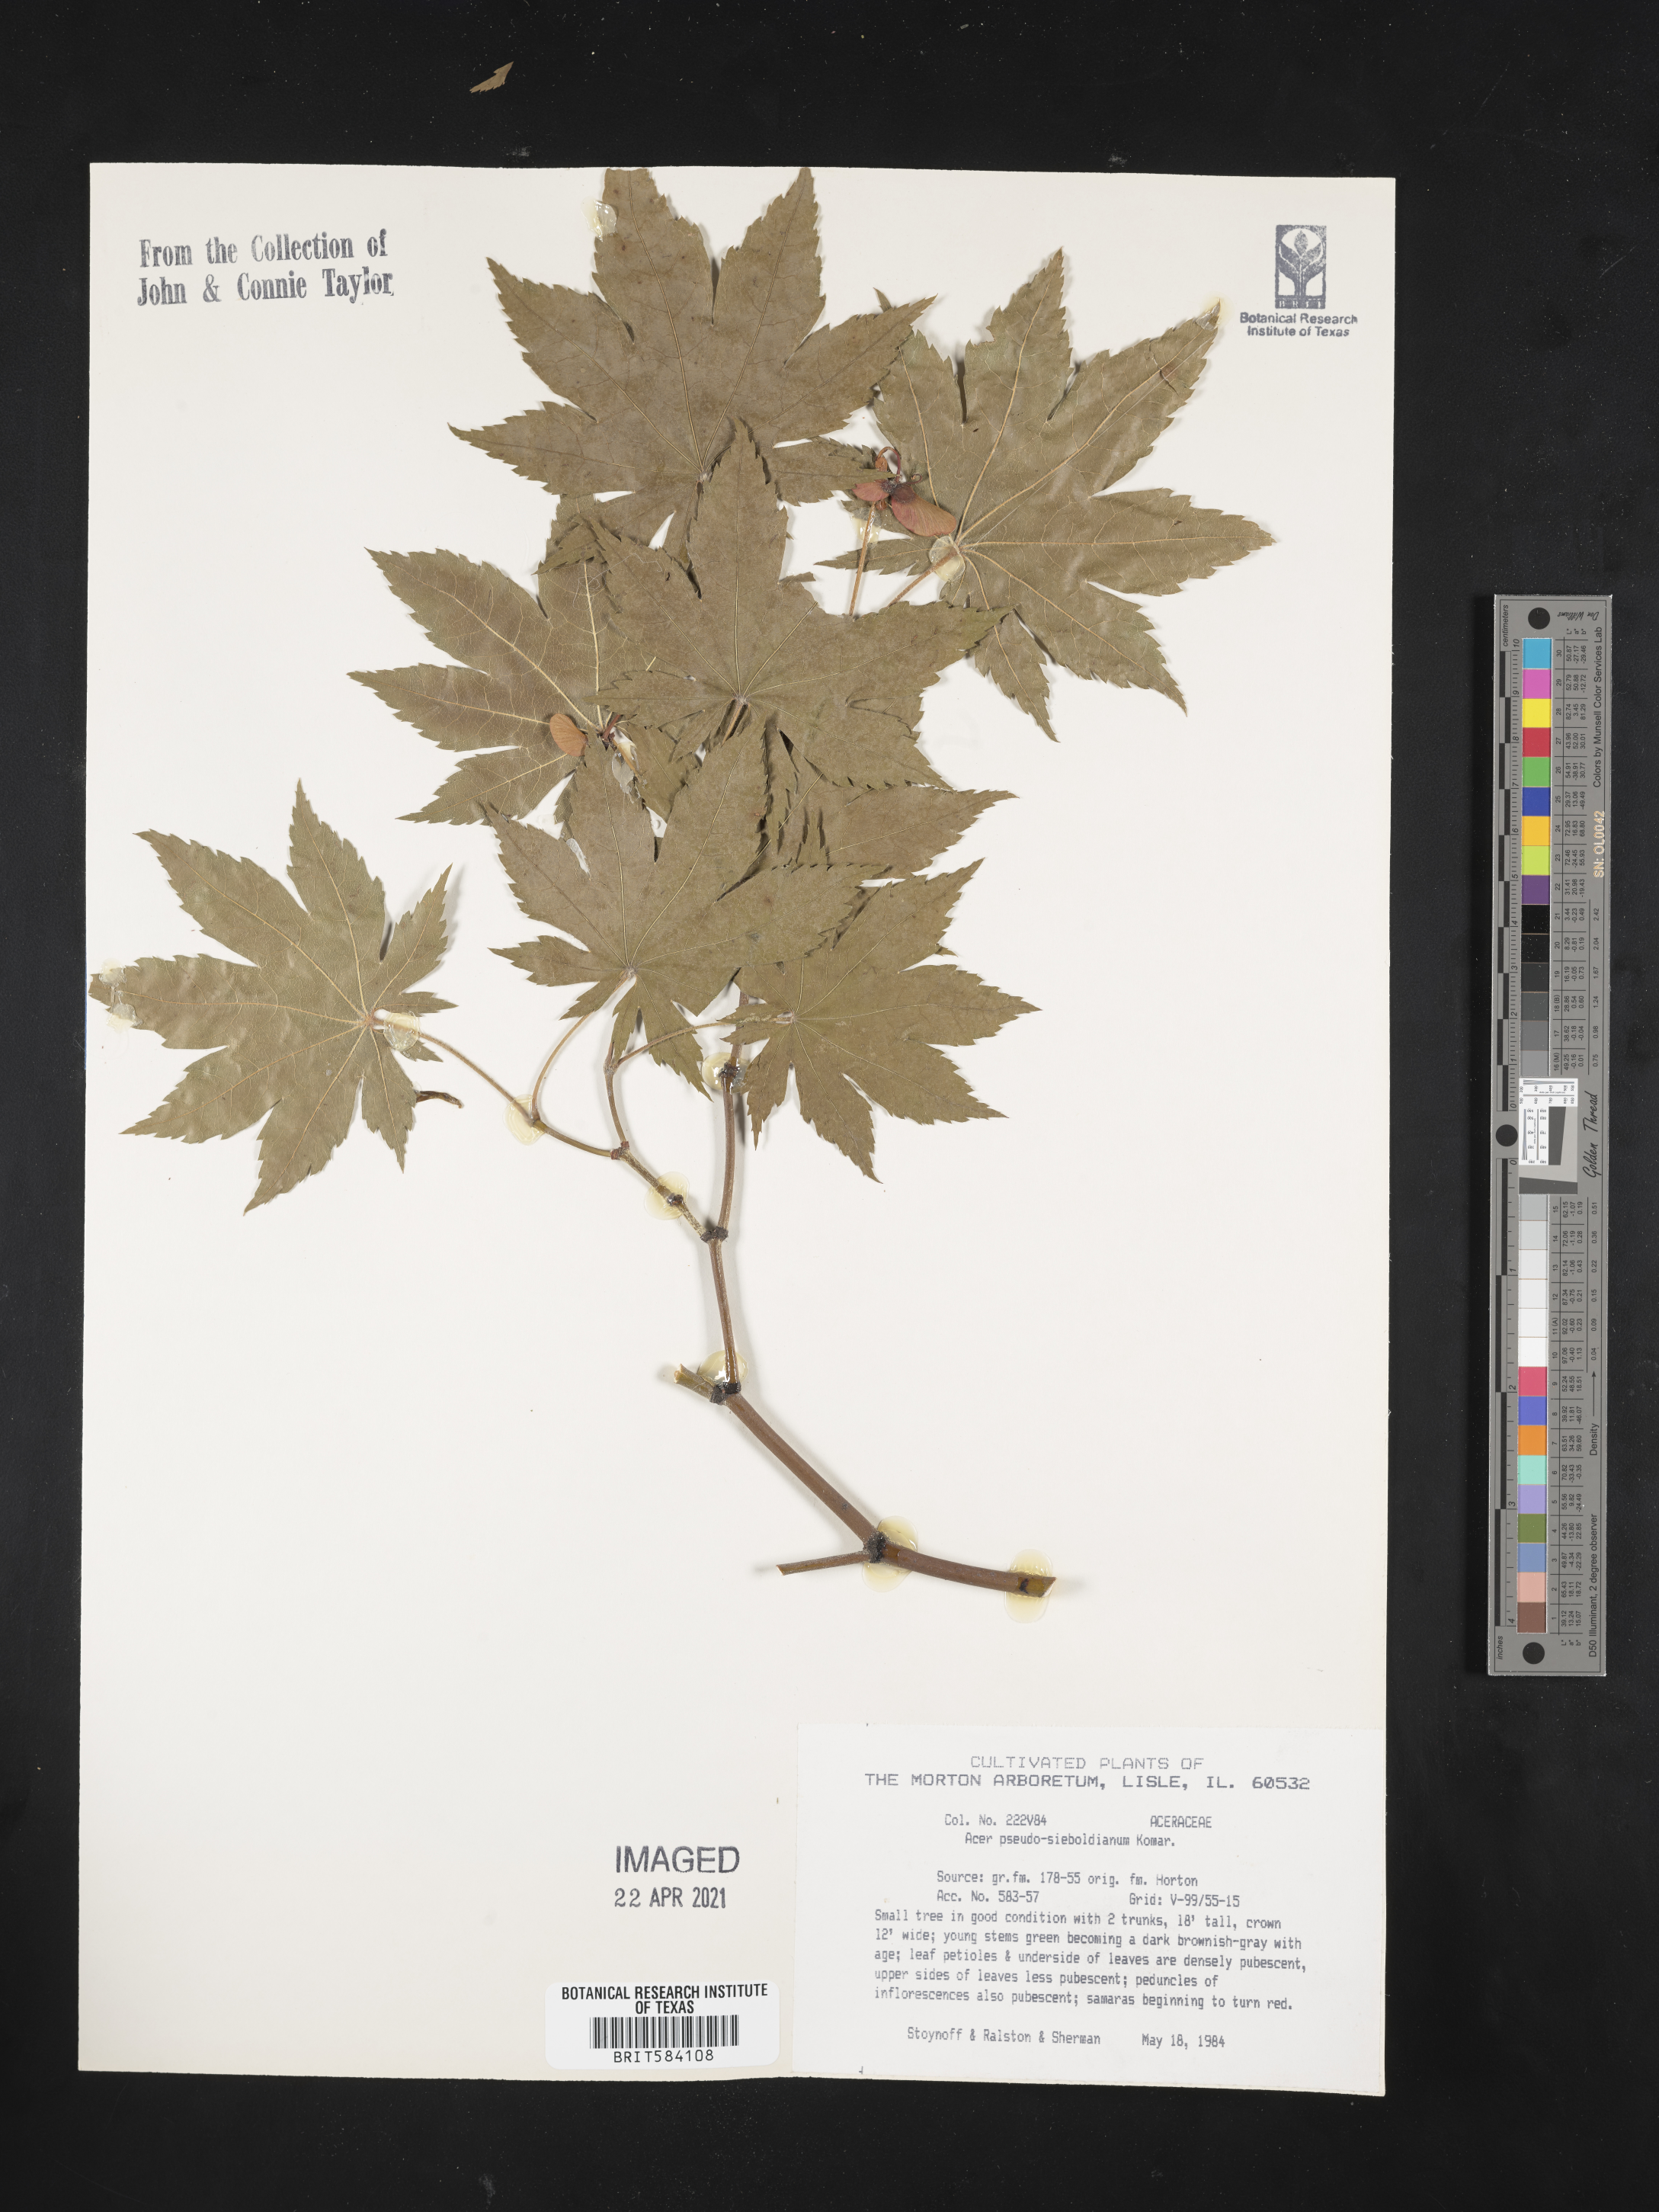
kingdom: Plantae
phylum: Tracheophyta
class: Magnoliopsida
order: Sapindales
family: Sapindaceae
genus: Acer
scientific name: Acer pseudosieboldianum
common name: Korean maple
